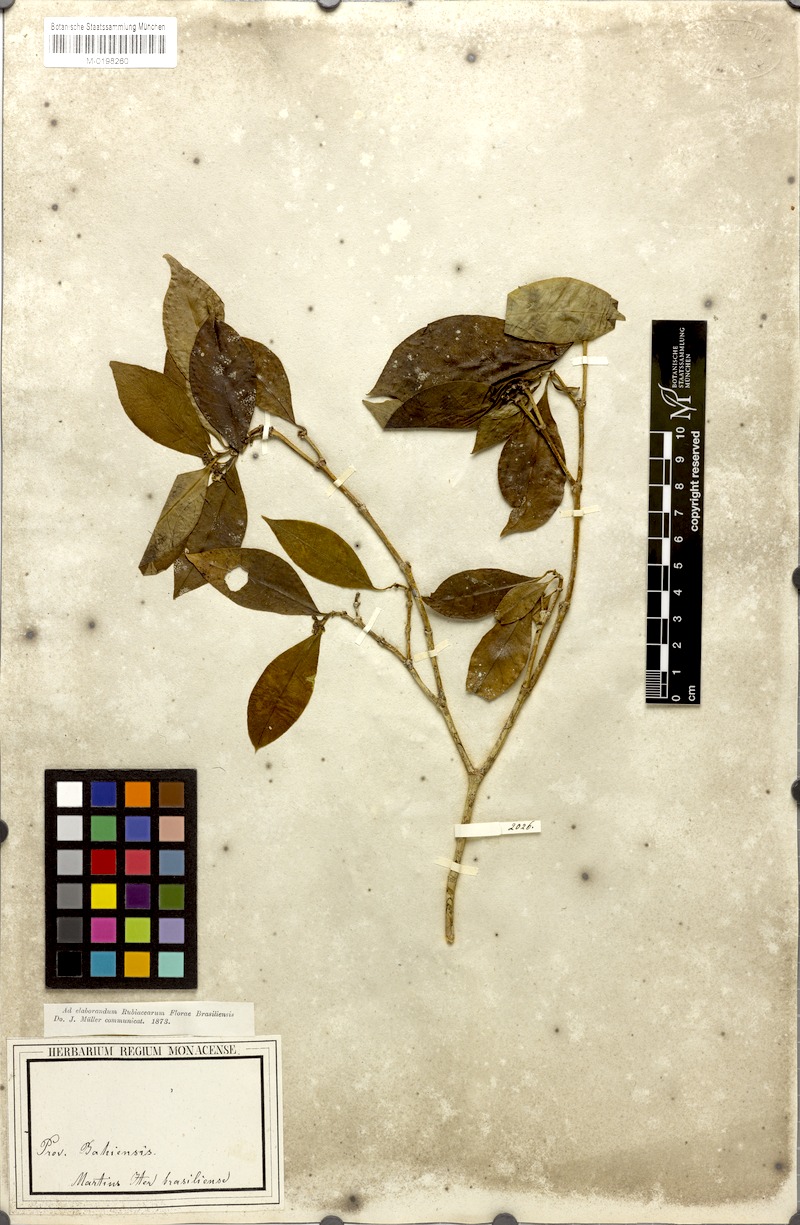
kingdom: Plantae
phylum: Tracheophyta
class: Magnoliopsida
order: Gentianales
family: Rubiaceae
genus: Psychotria
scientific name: Psychotria Mapouria laevifolia
